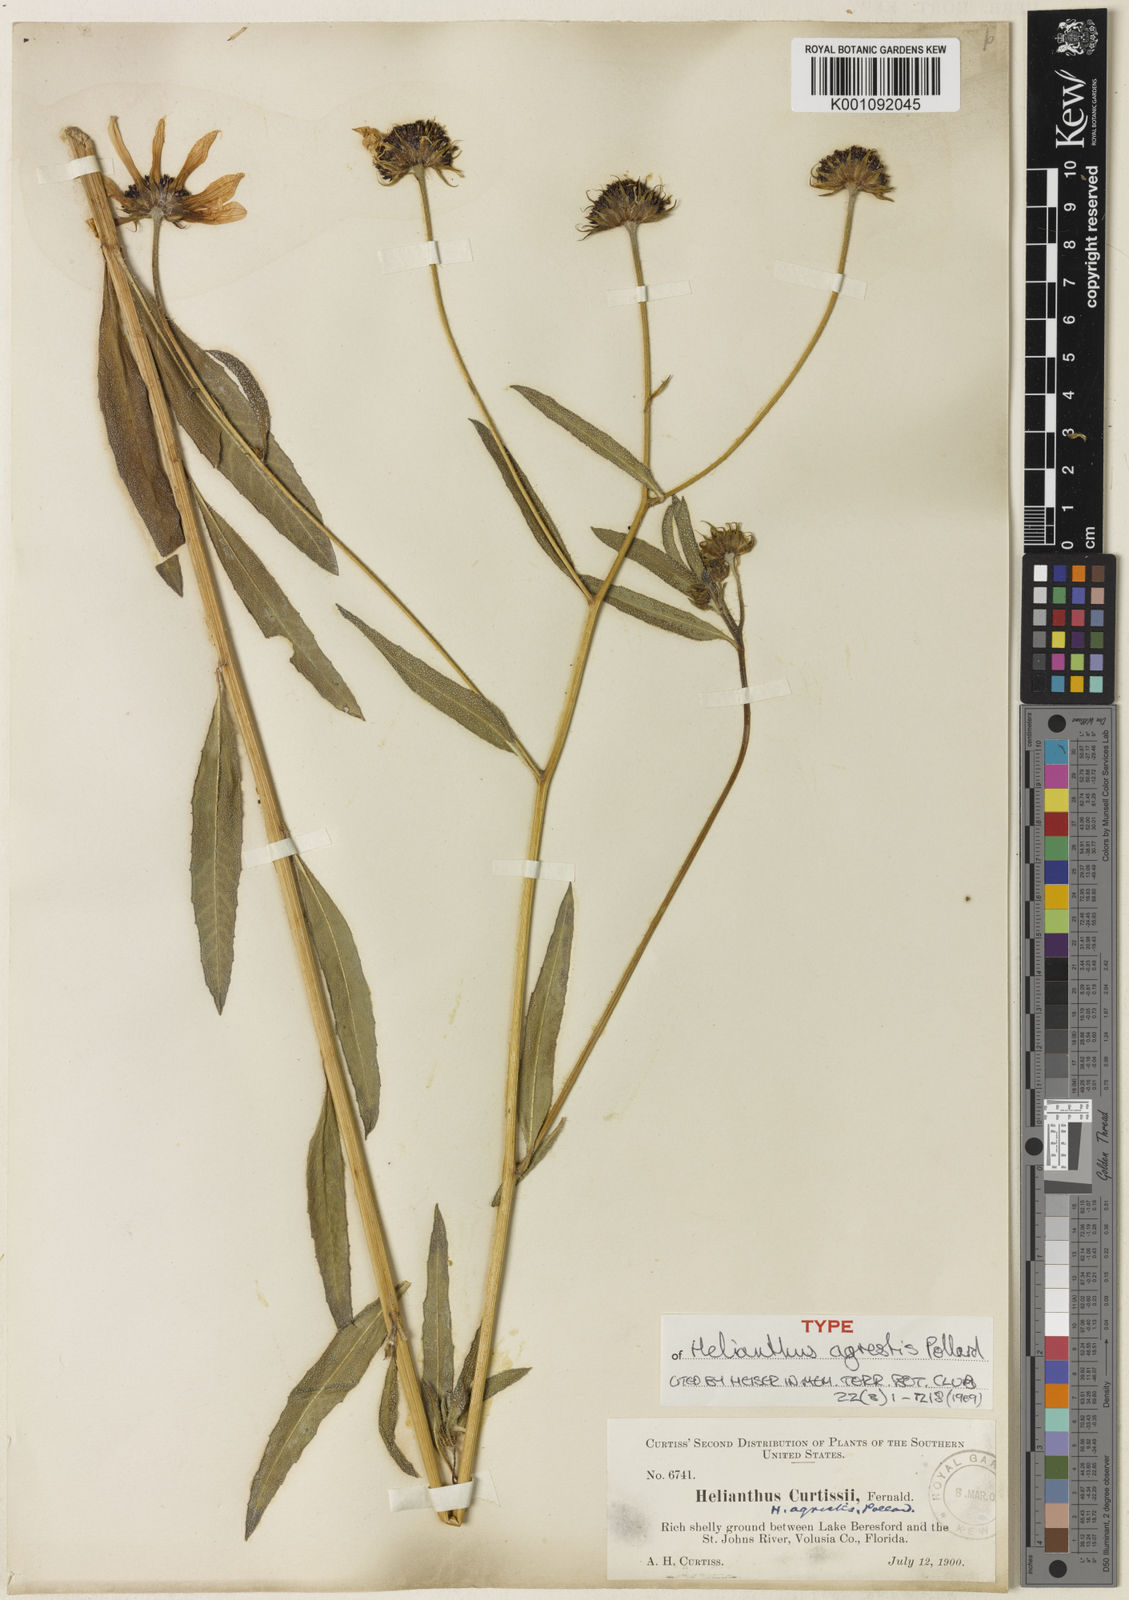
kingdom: Plantae
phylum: Tracheophyta
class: Magnoliopsida
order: Asterales
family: Asteraceae
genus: Helianthus
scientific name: Helianthus agrestis
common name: Rural sunflower
